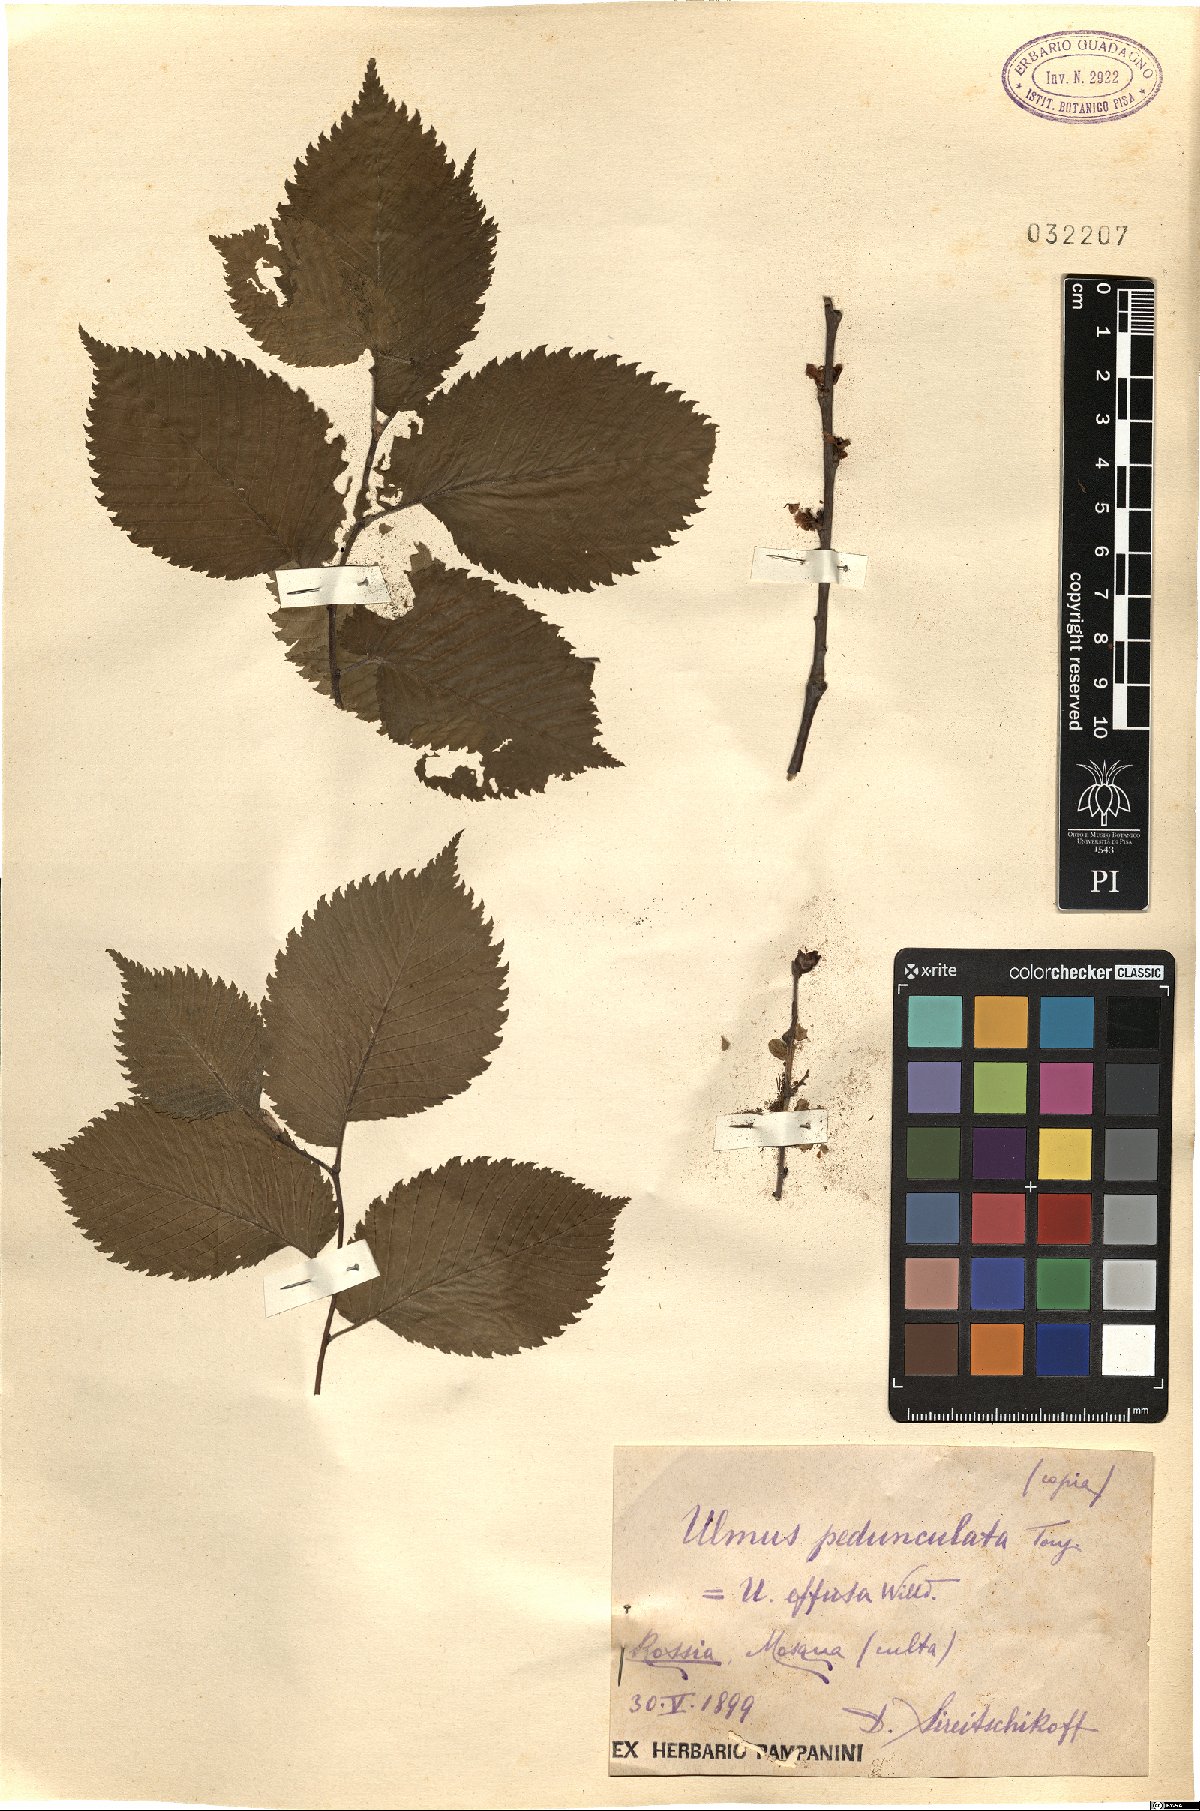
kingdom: Plantae
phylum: Tracheophyta
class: Magnoliopsida
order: Rosales
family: Ulmaceae
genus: Ulmus
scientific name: Ulmus laevis
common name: European white-elm
